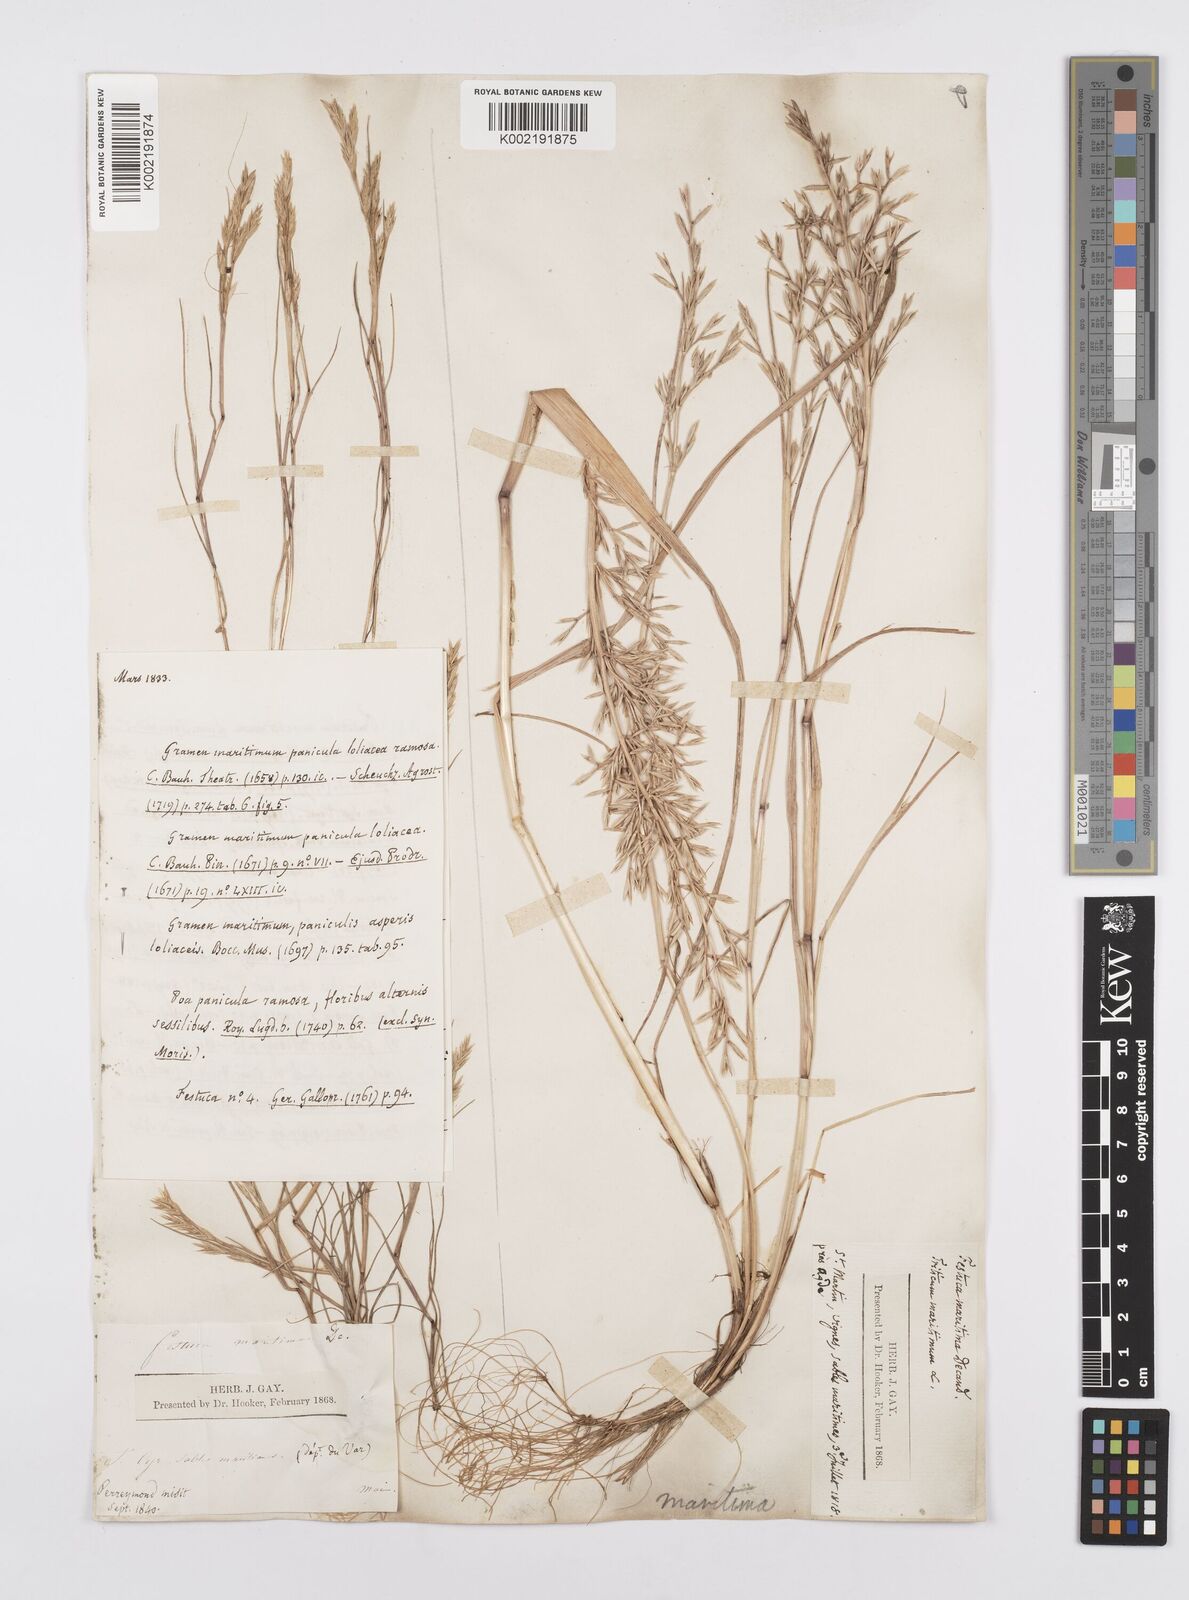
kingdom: Plantae
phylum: Tracheophyta
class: Liliopsida
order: Poales
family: Poaceae
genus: Cutandia
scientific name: Cutandia maritima
